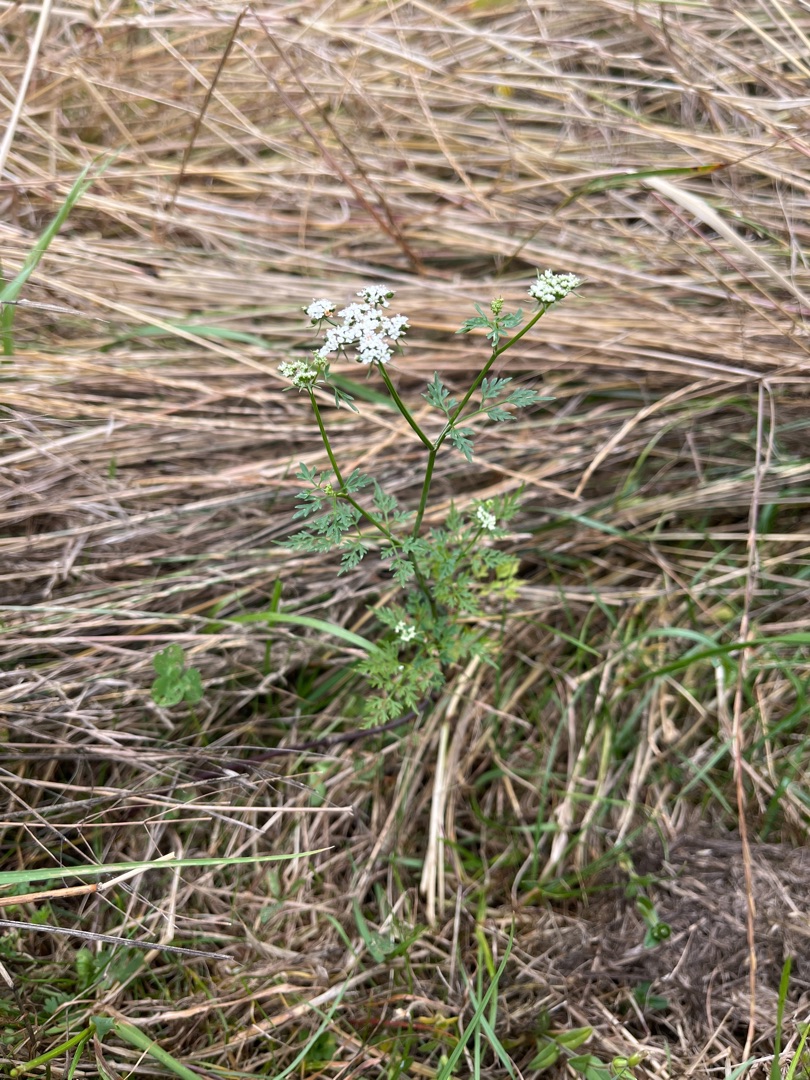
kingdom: Plantae
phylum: Tracheophyta
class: Magnoliopsida
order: Apiales
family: Apiaceae
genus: Aethusa
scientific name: Aethusa cynapium
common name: Hundepersille
